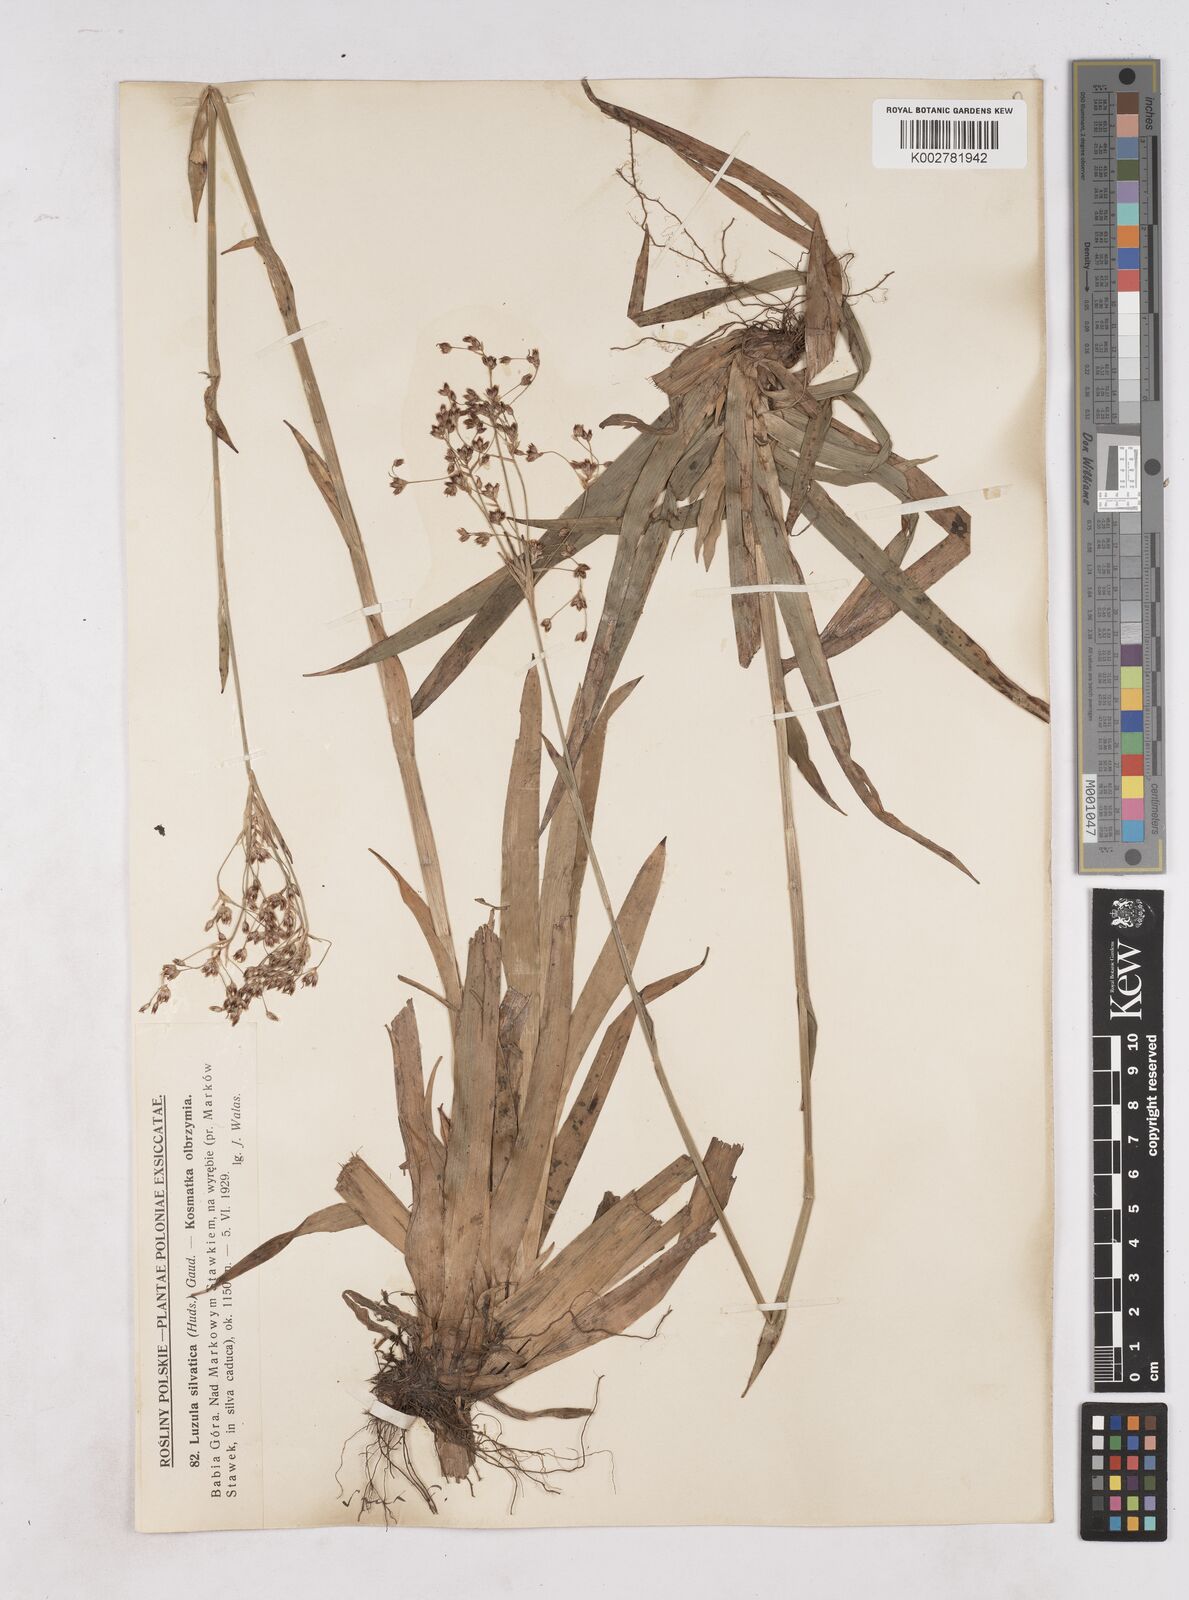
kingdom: Plantae
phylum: Tracheophyta
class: Liliopsida
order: Poales
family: Juncaceae
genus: Luzula
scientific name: Luzula sylvatica
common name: Great wood-rush
